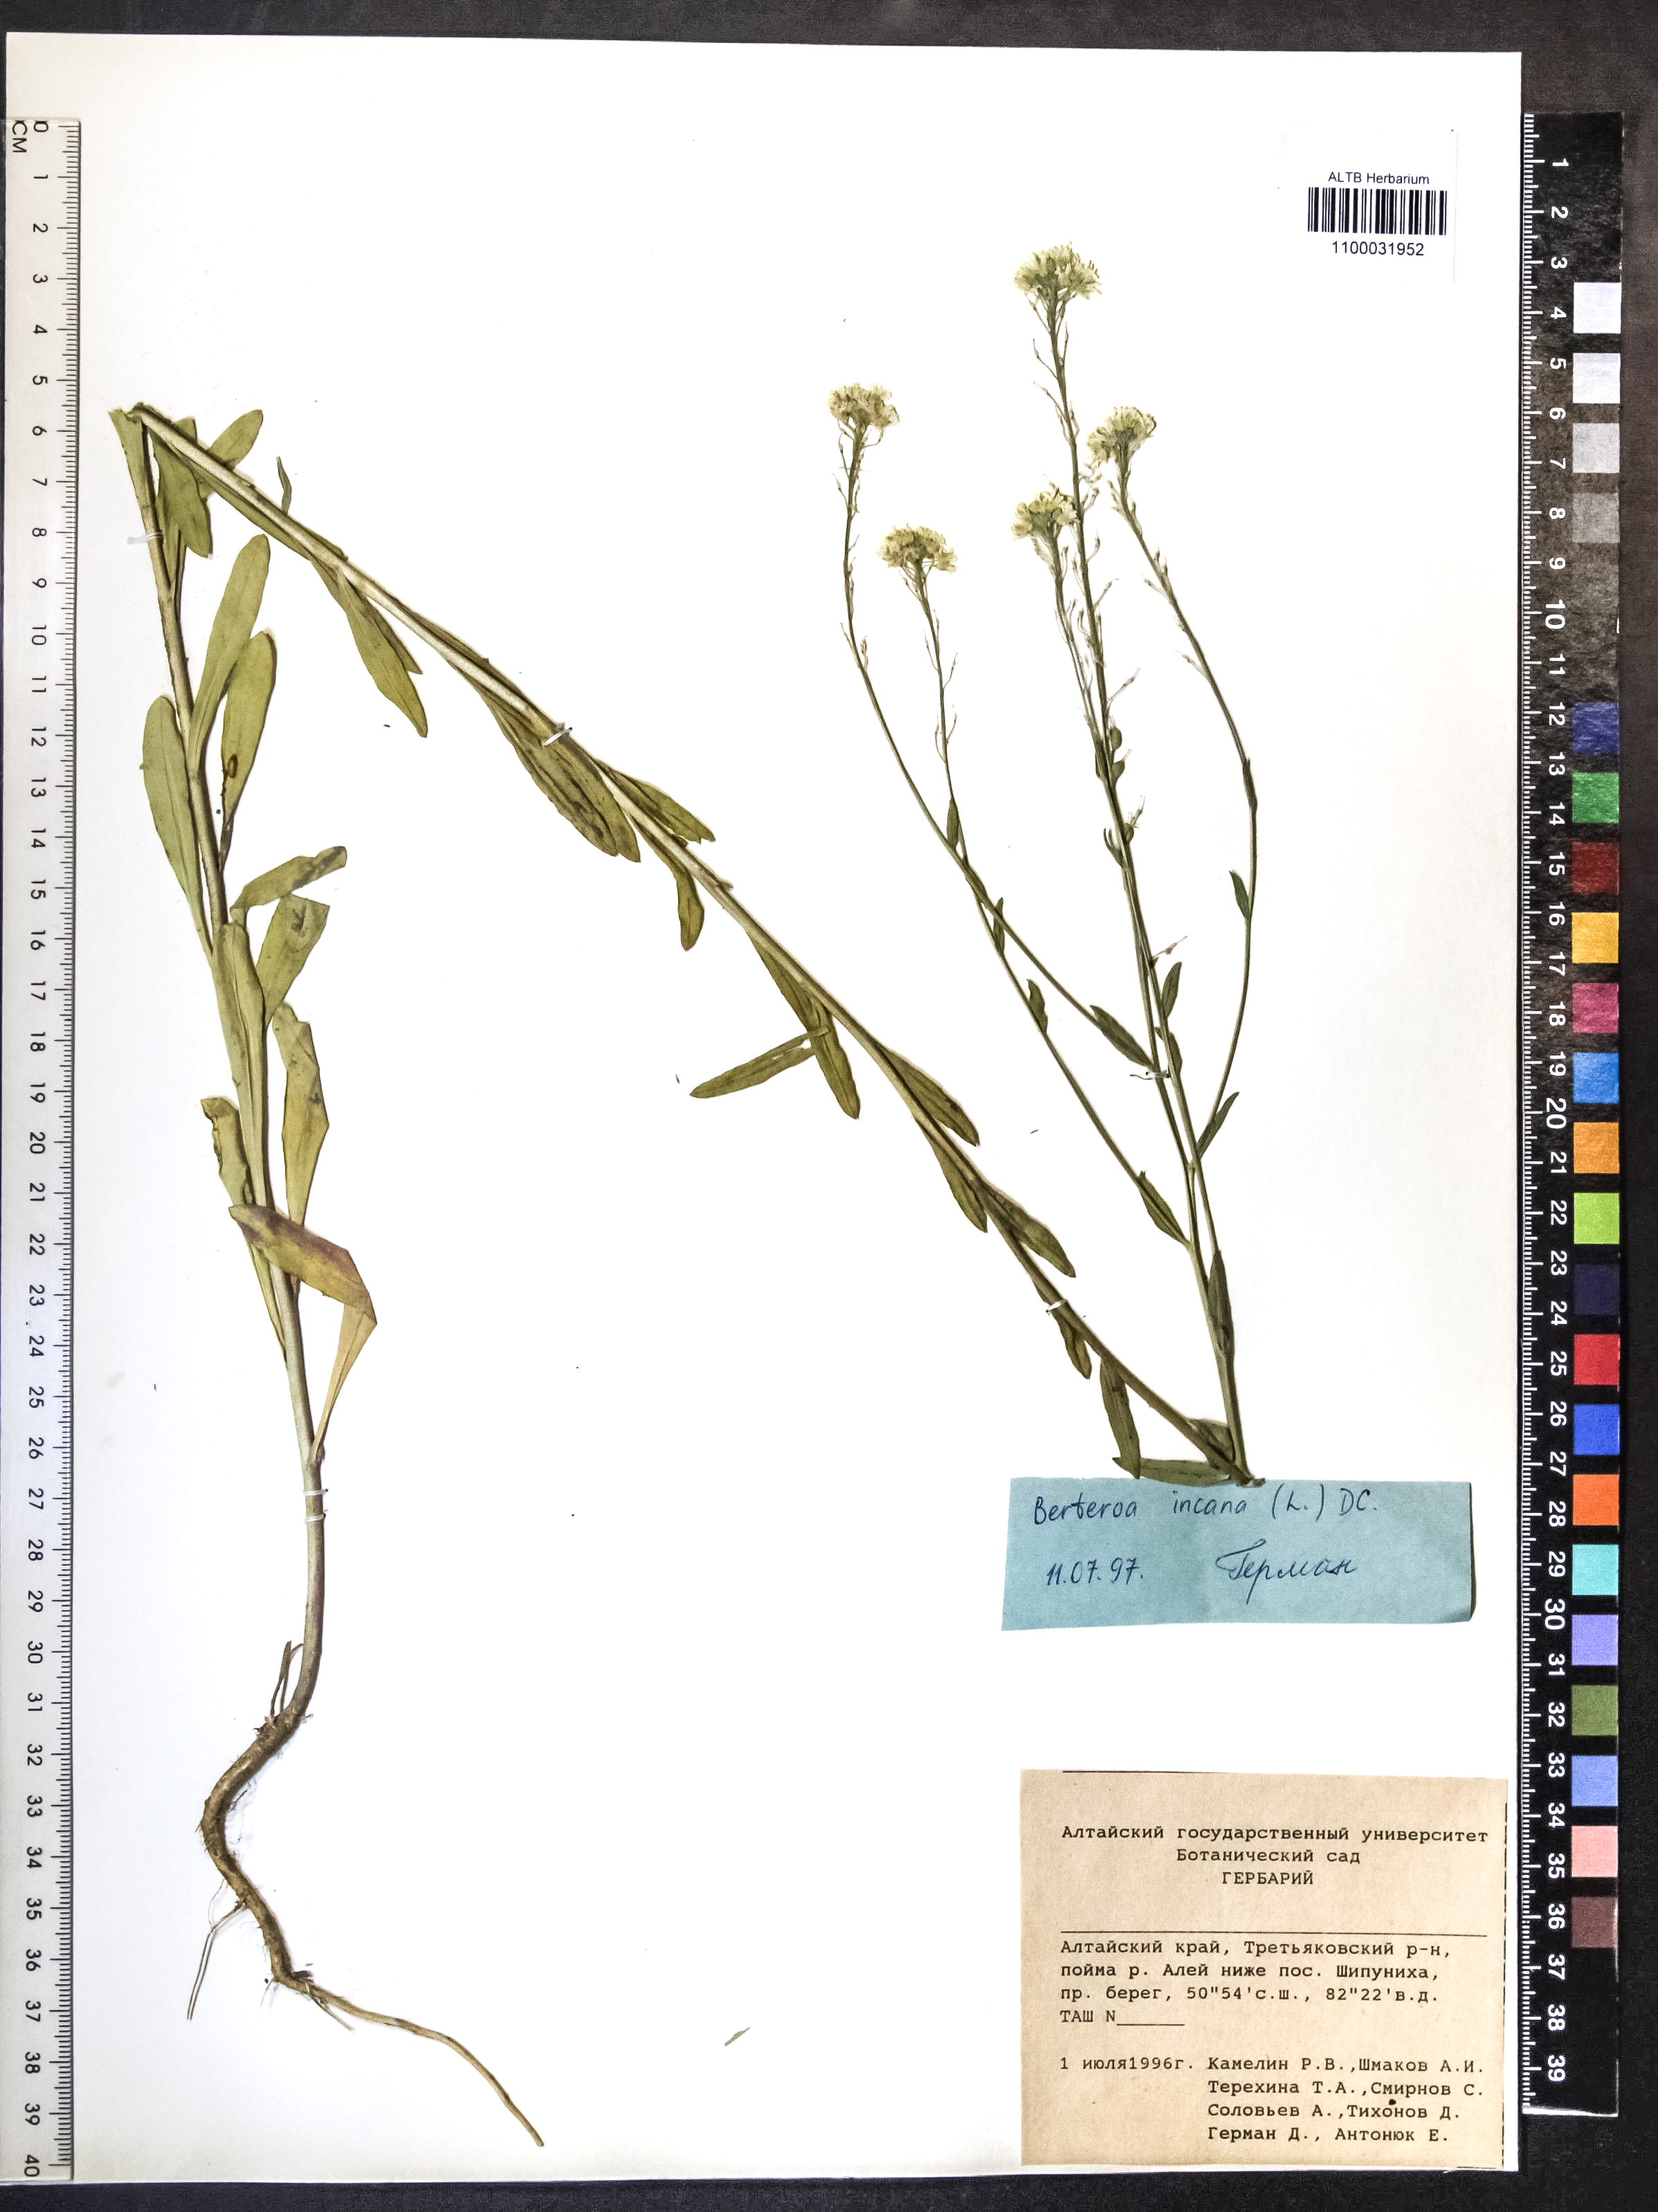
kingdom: Plantae
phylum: Tracheophyta
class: Magnoliopsida
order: Brassicales
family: Brassicaceae
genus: Berteroa
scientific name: Berteroa incana
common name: Hoary alison
